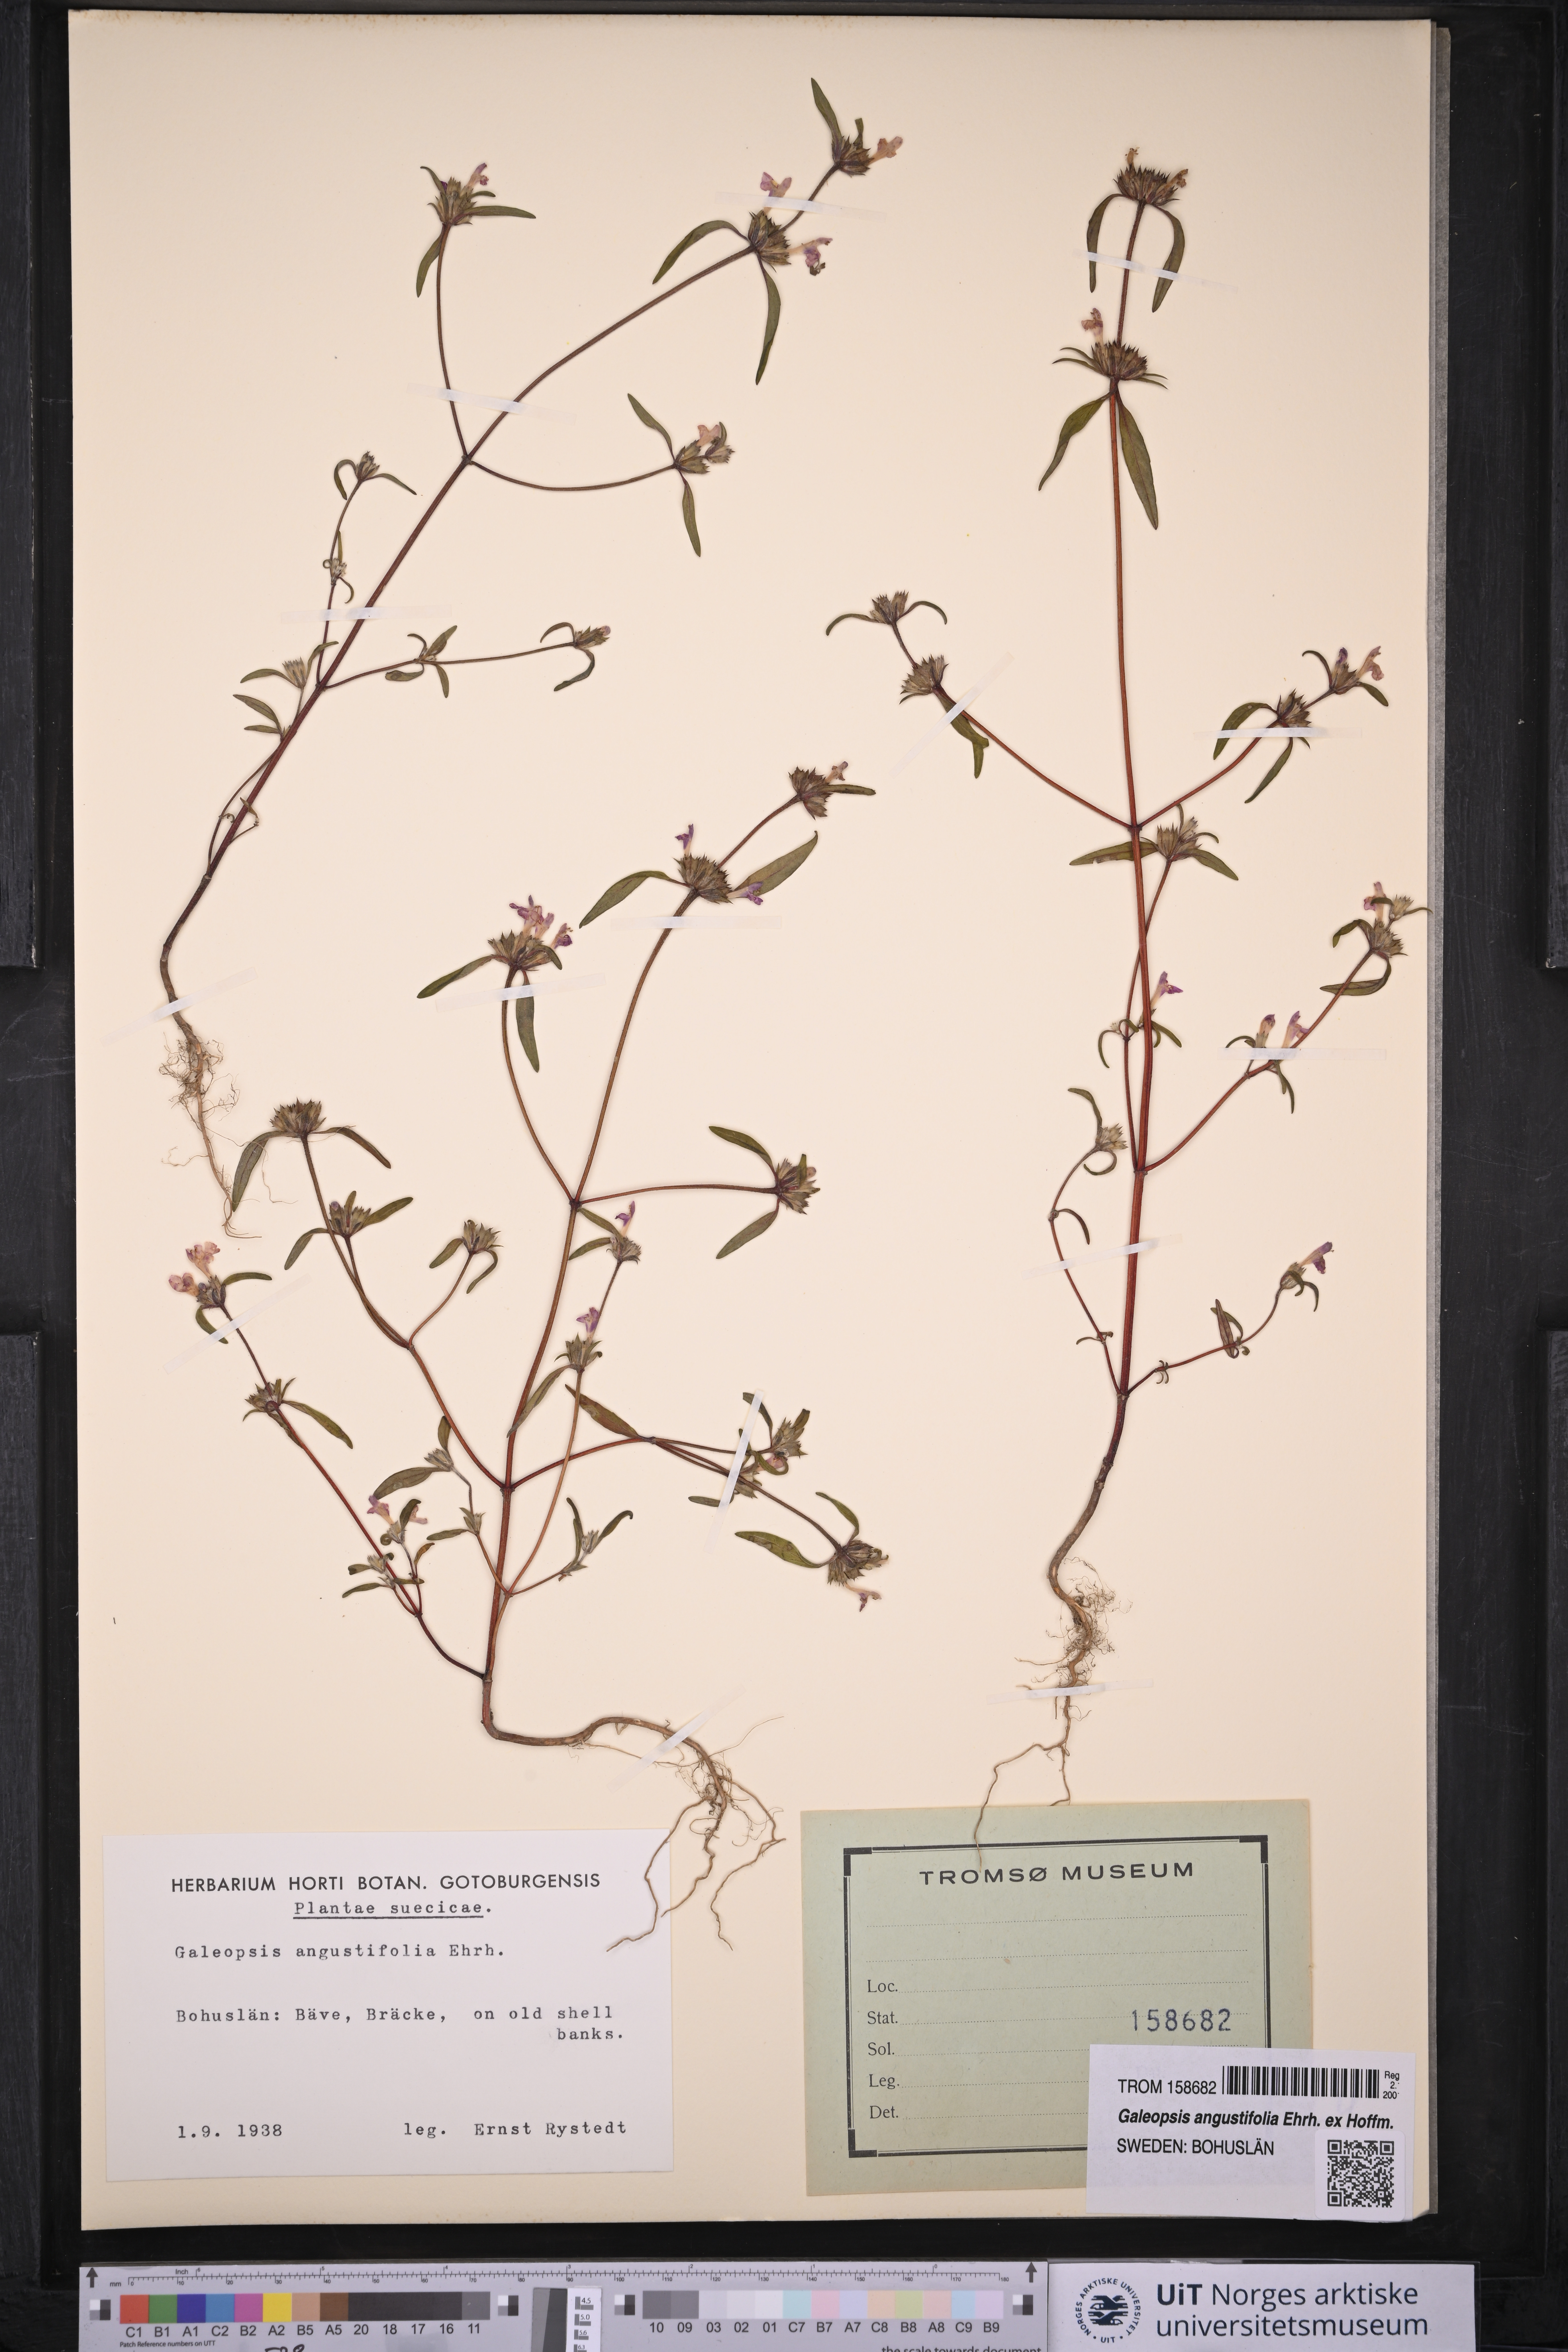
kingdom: Plantae
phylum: Tracheophyta
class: Magnoliopsida
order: Lamiales
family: Lamiaceae
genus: Galeopsis
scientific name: Galeopsis angustifolia
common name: Red hemp-nettle
